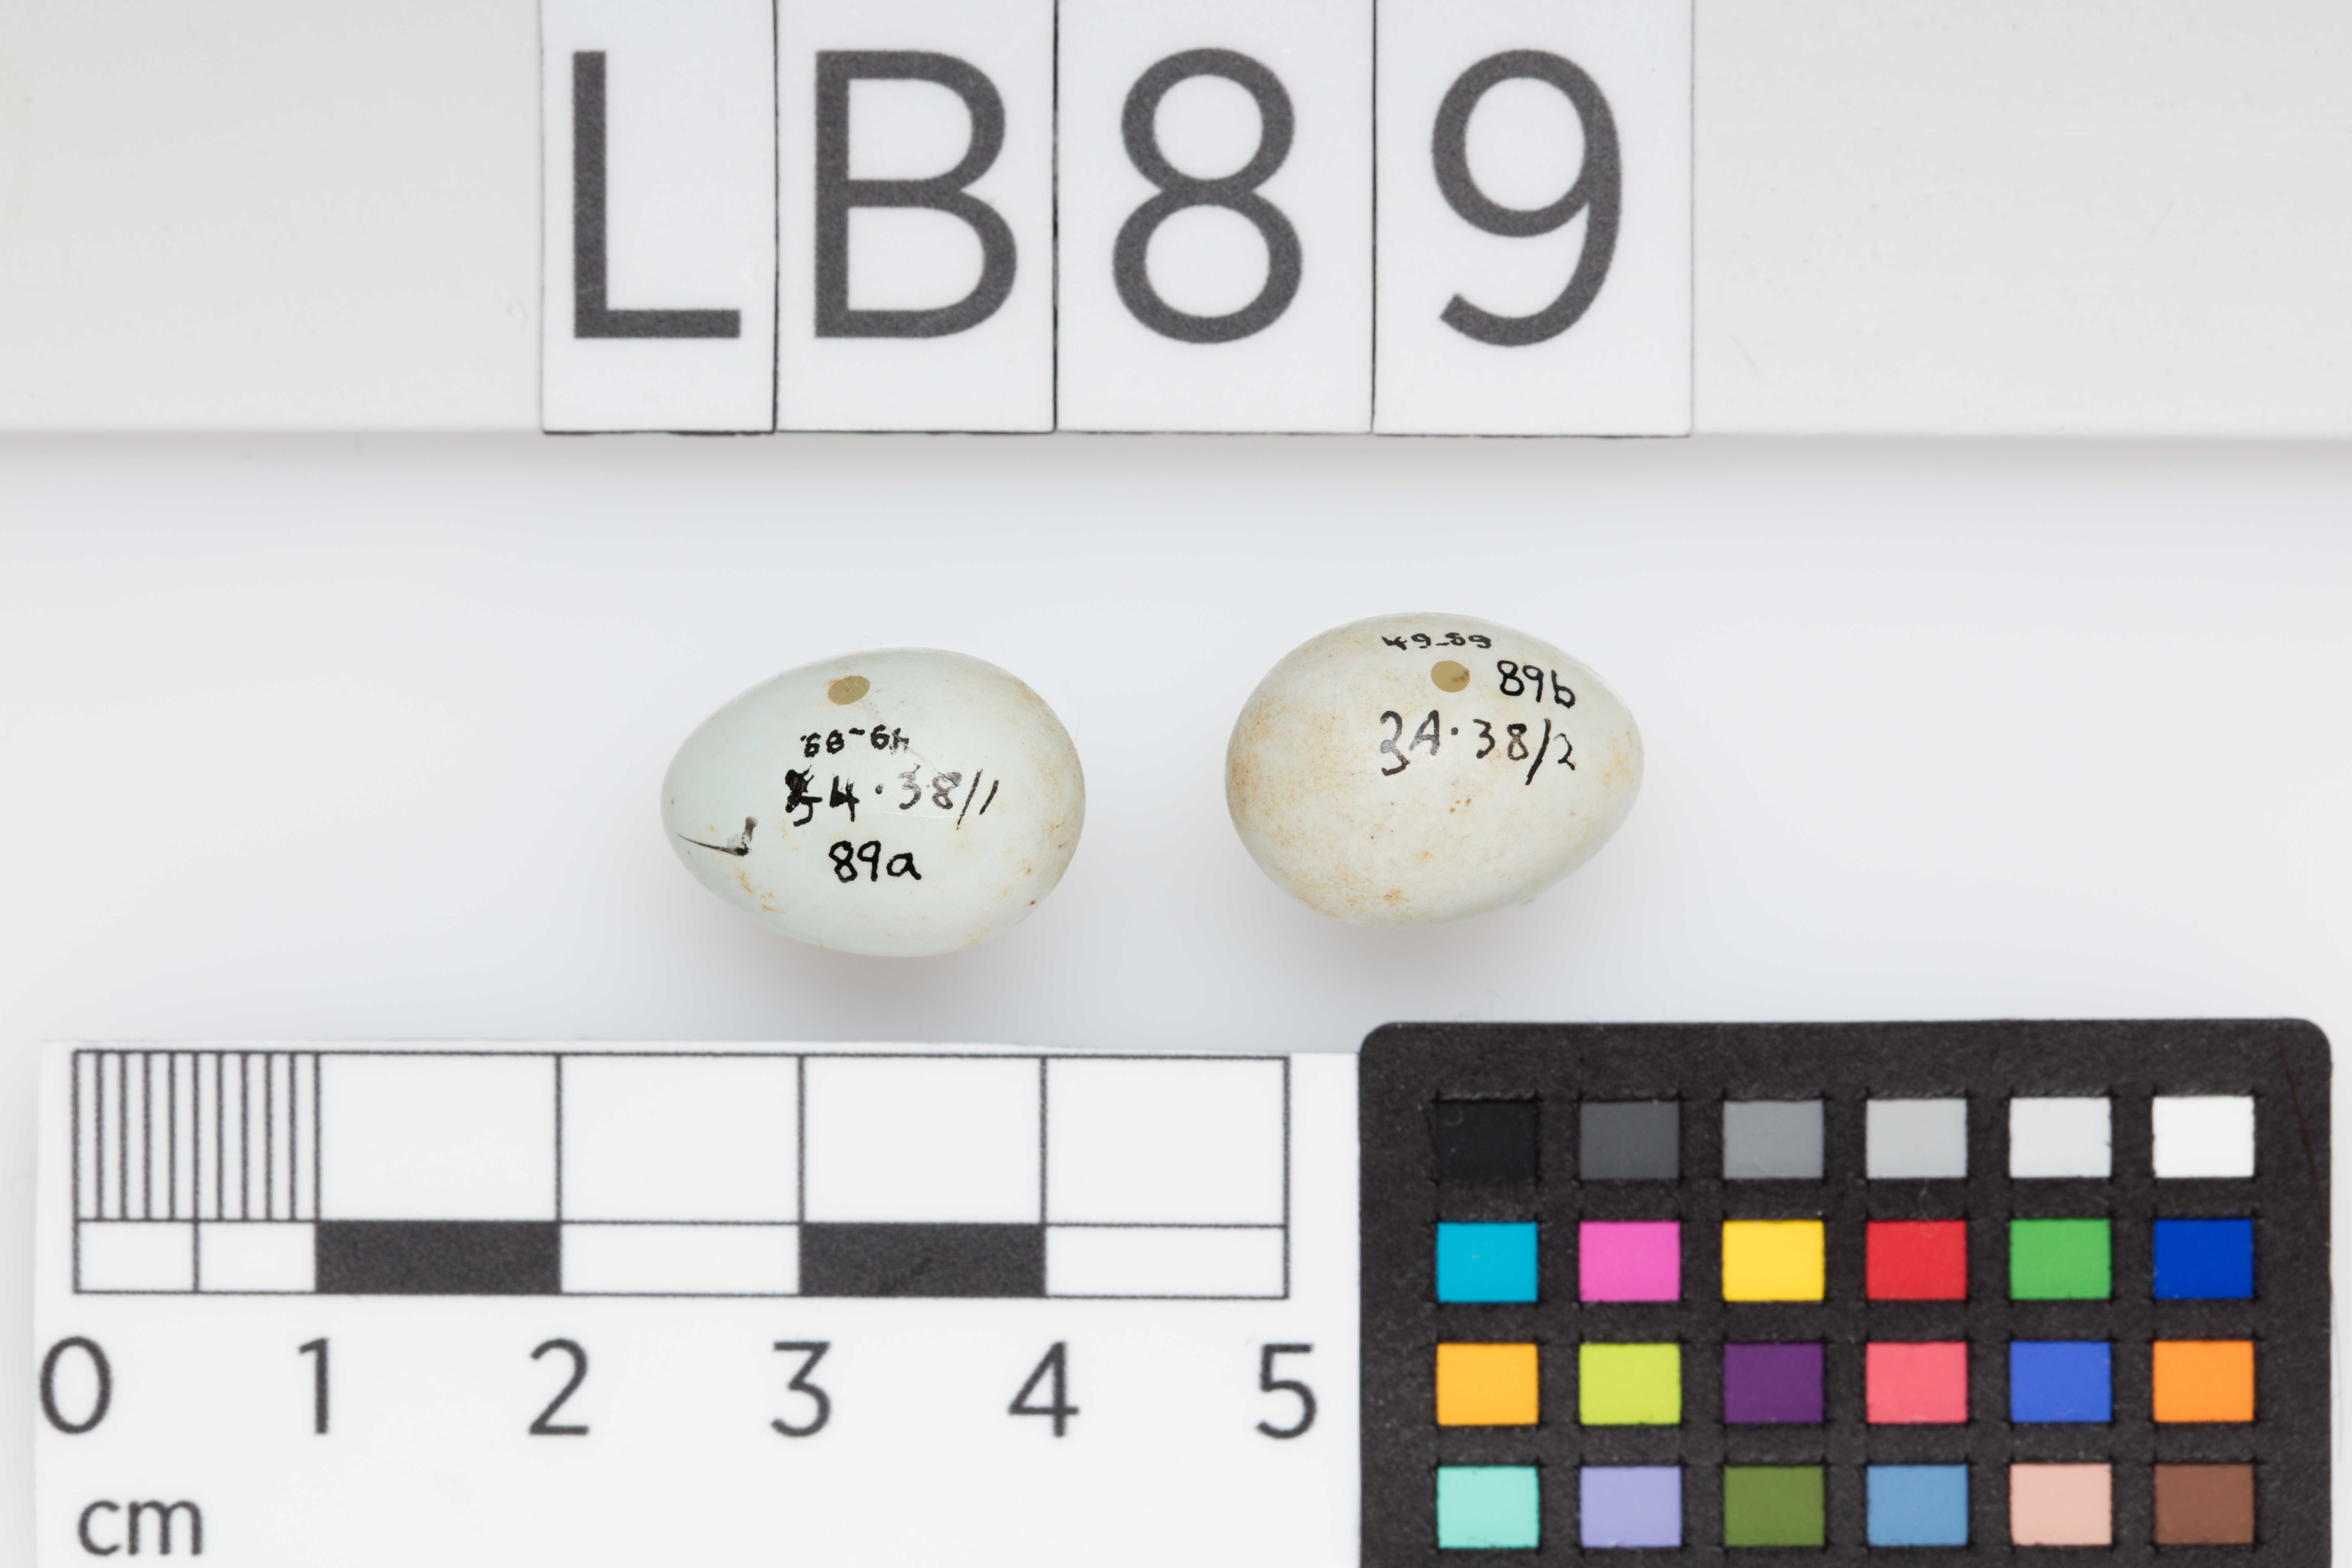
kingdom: Animalia
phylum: Chordata
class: Aves
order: Passeriformes
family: Zosteropidae
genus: Zosterops
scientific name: Zosterops lateralis
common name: Silvereye
